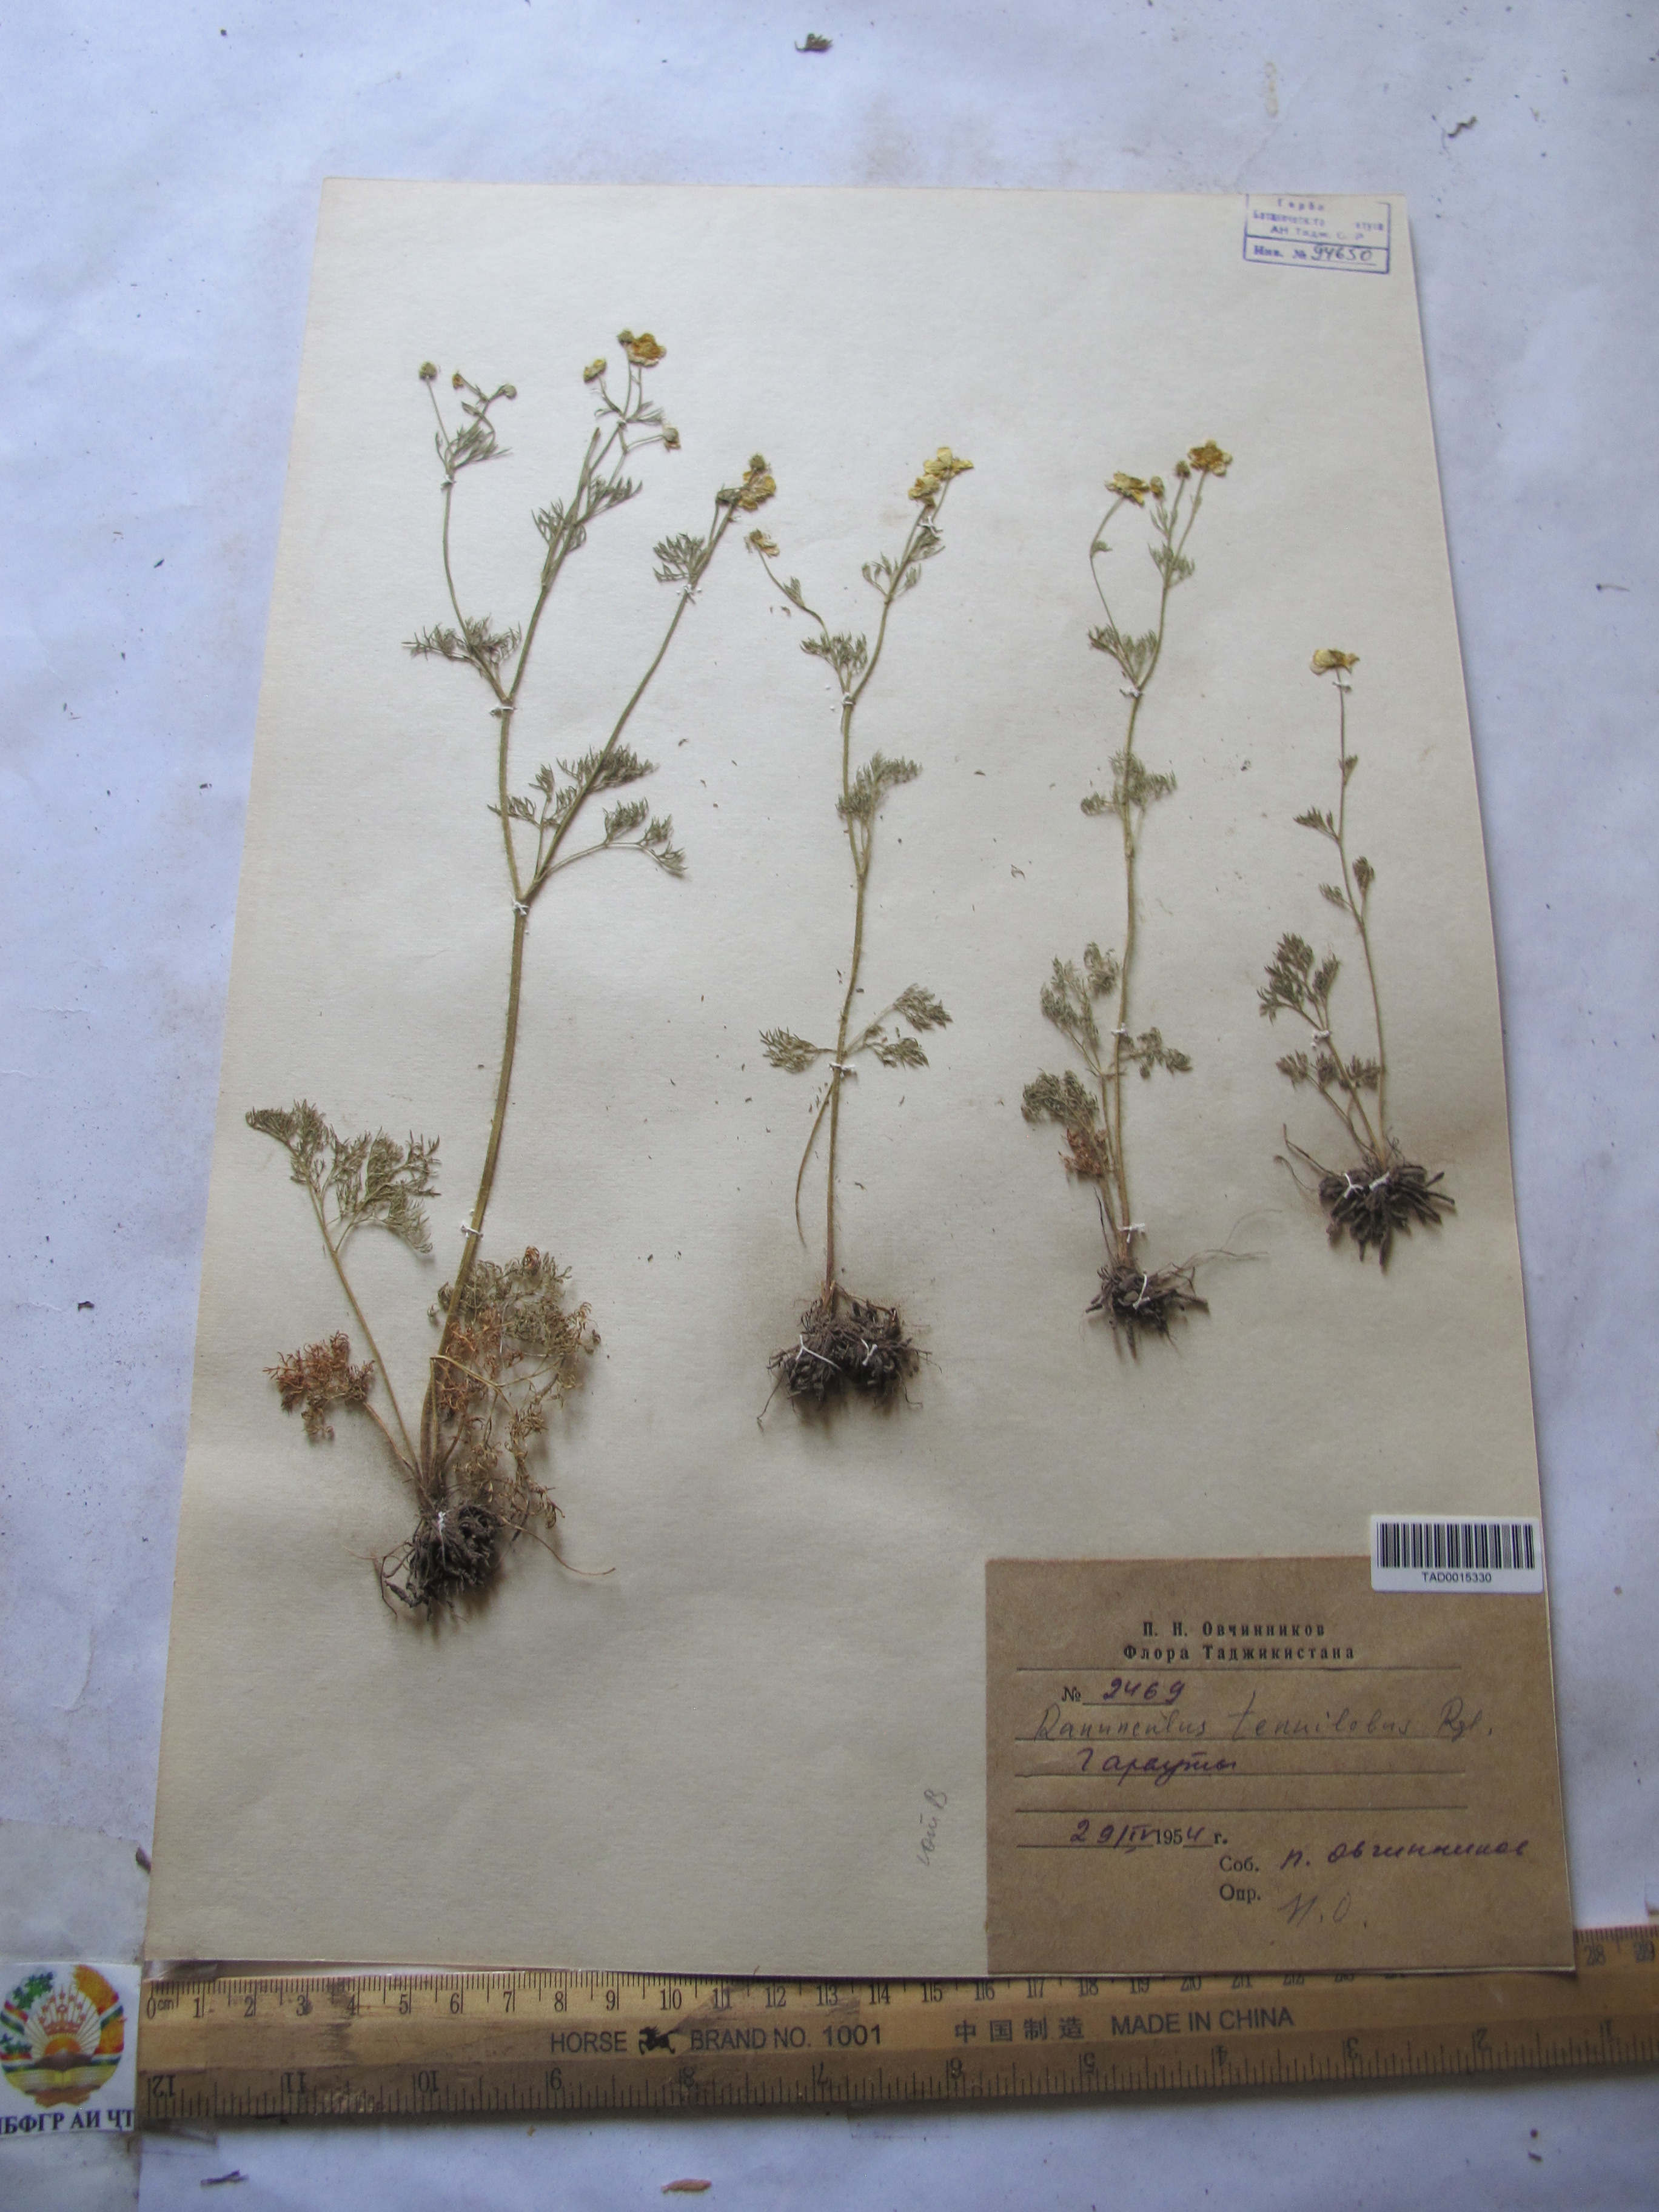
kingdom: Plantae
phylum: Tracheophyta
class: Magnoliopsida
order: Ranunculales
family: Ranunculaceae
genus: Ranunculus
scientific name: Ranunculus tenuilobus
